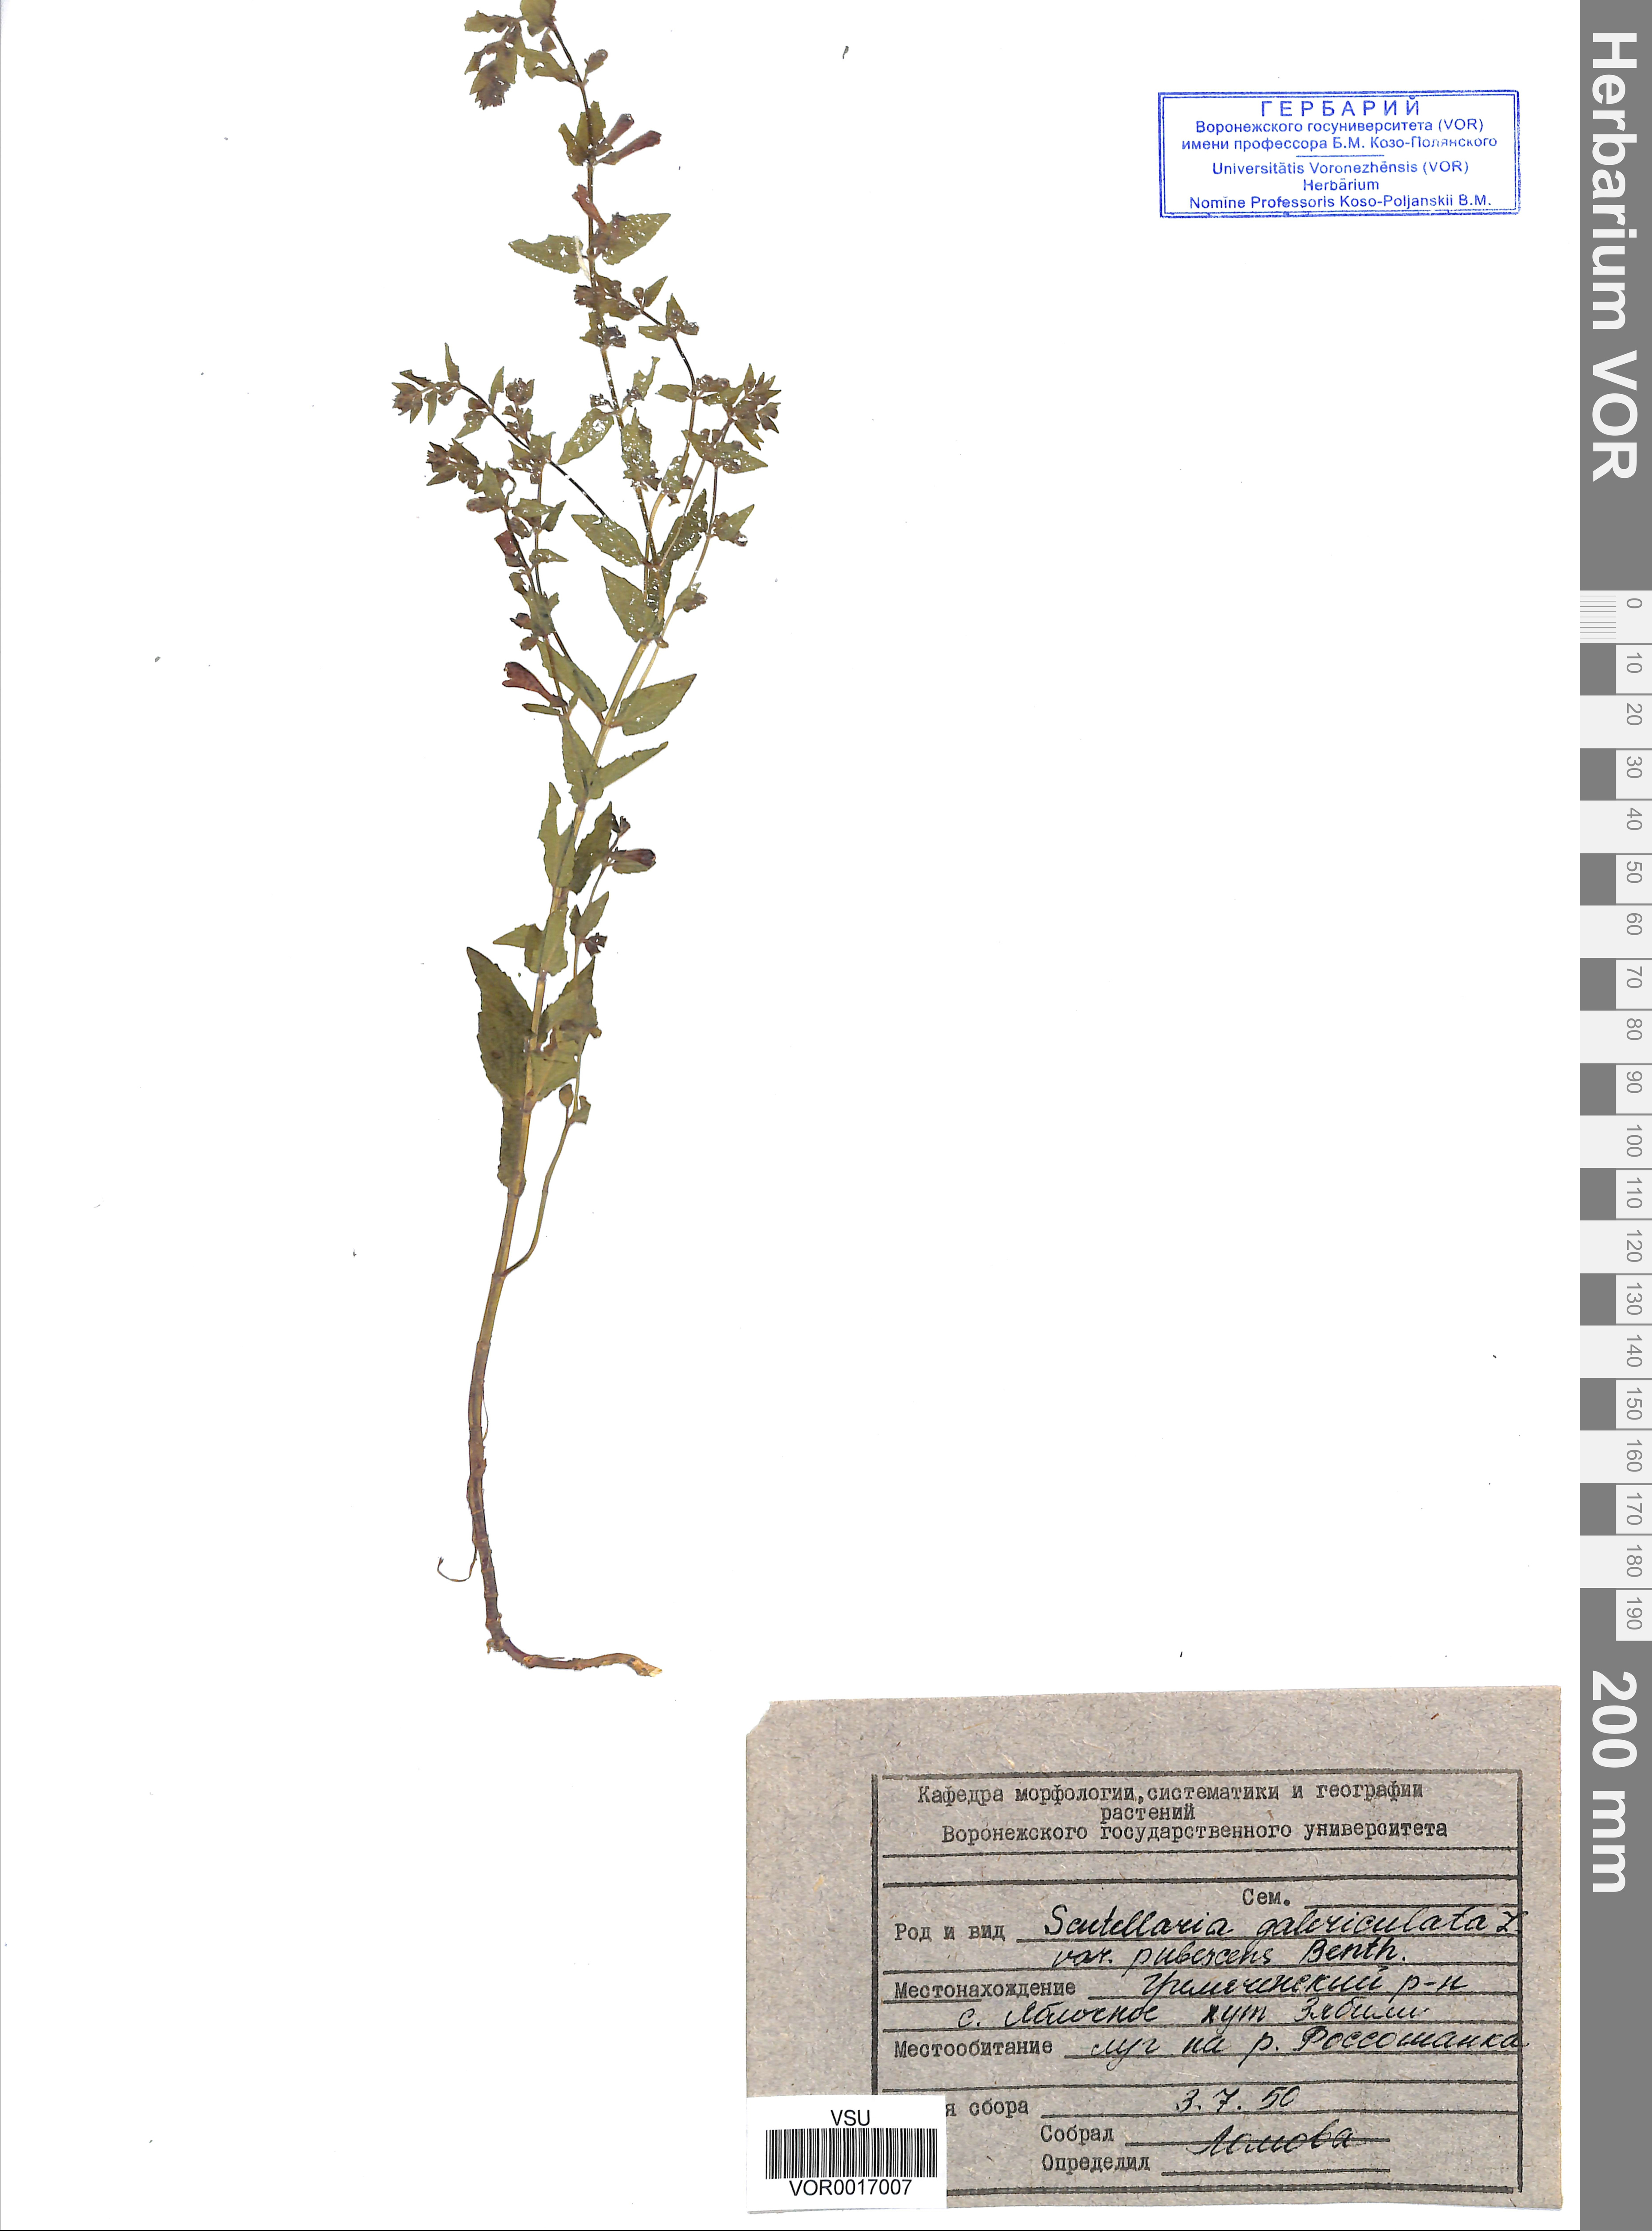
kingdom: Plantae
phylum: Tracheophyta
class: Magnoliopsida
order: Lamiales
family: Lamiaceae
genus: Scutellaria
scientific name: Scutellaria galericulata
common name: Skullcap
